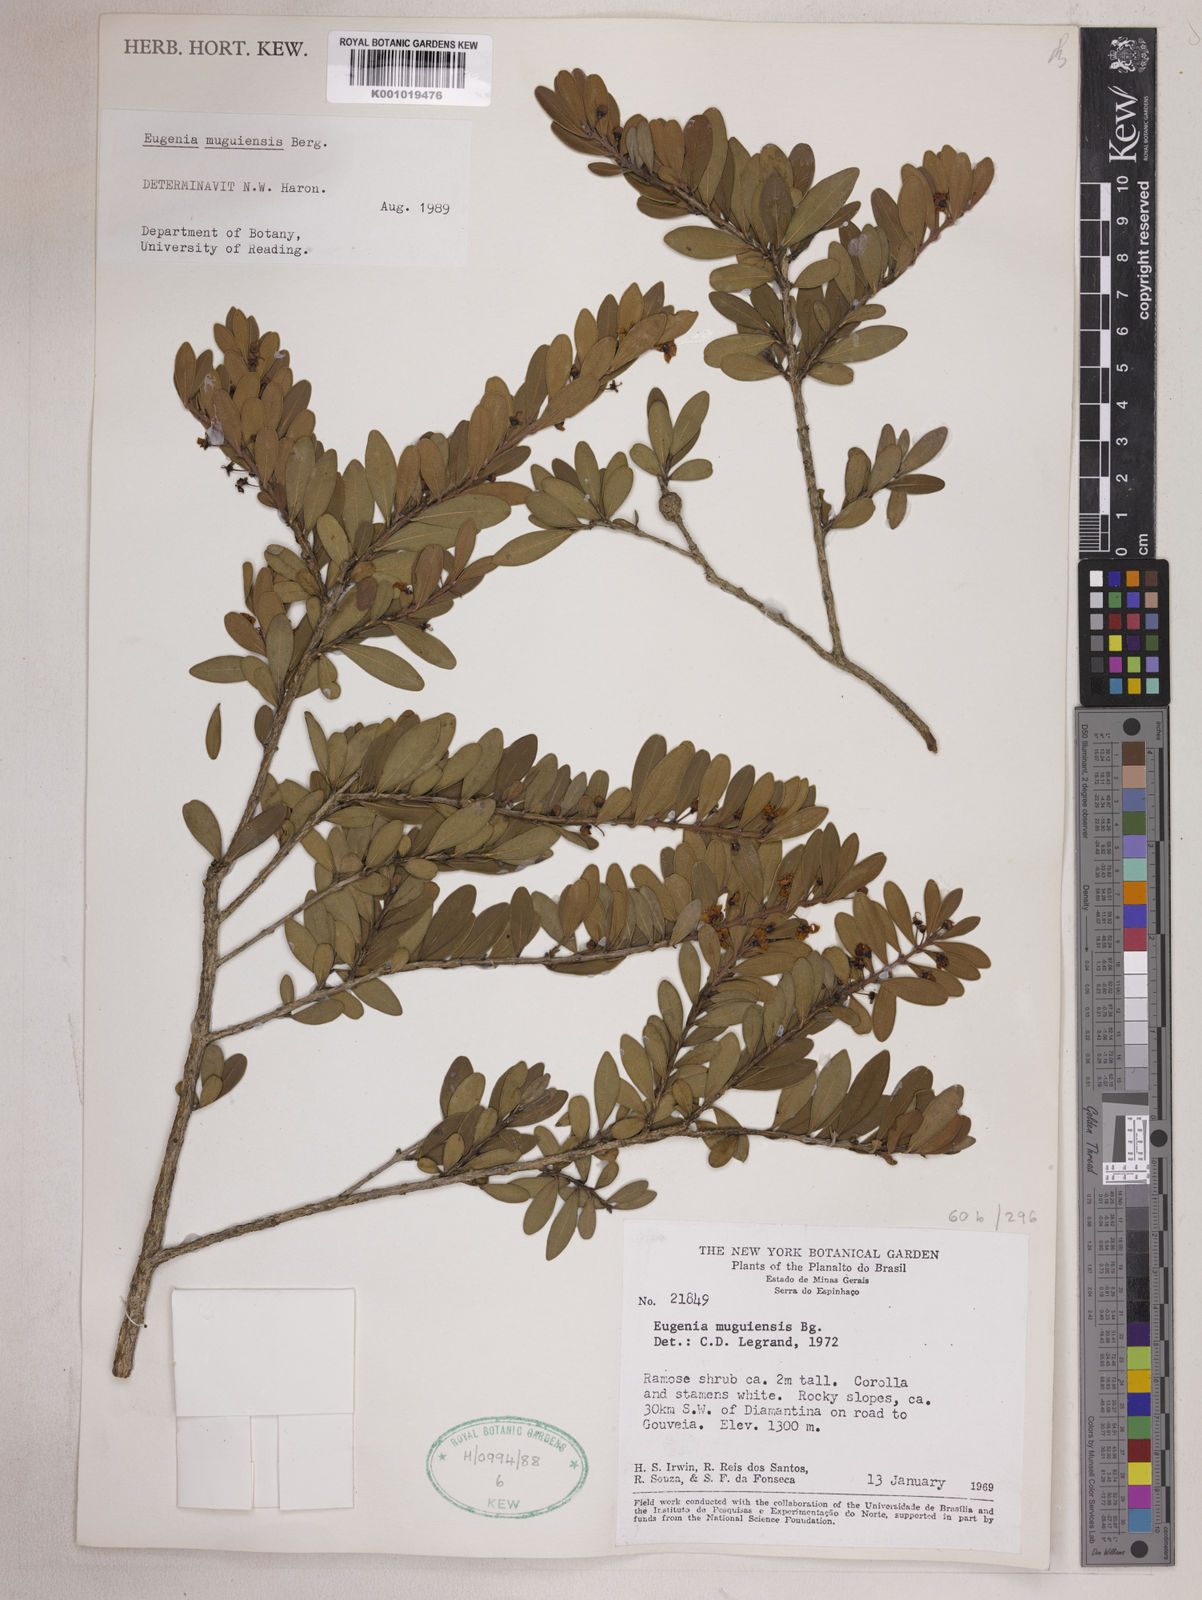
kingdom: Plantae
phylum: Tracheophyta
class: Magnoliopsida
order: Myrtales
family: Myrtaceae
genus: Eugenia
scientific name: Eugenia punicifolia
